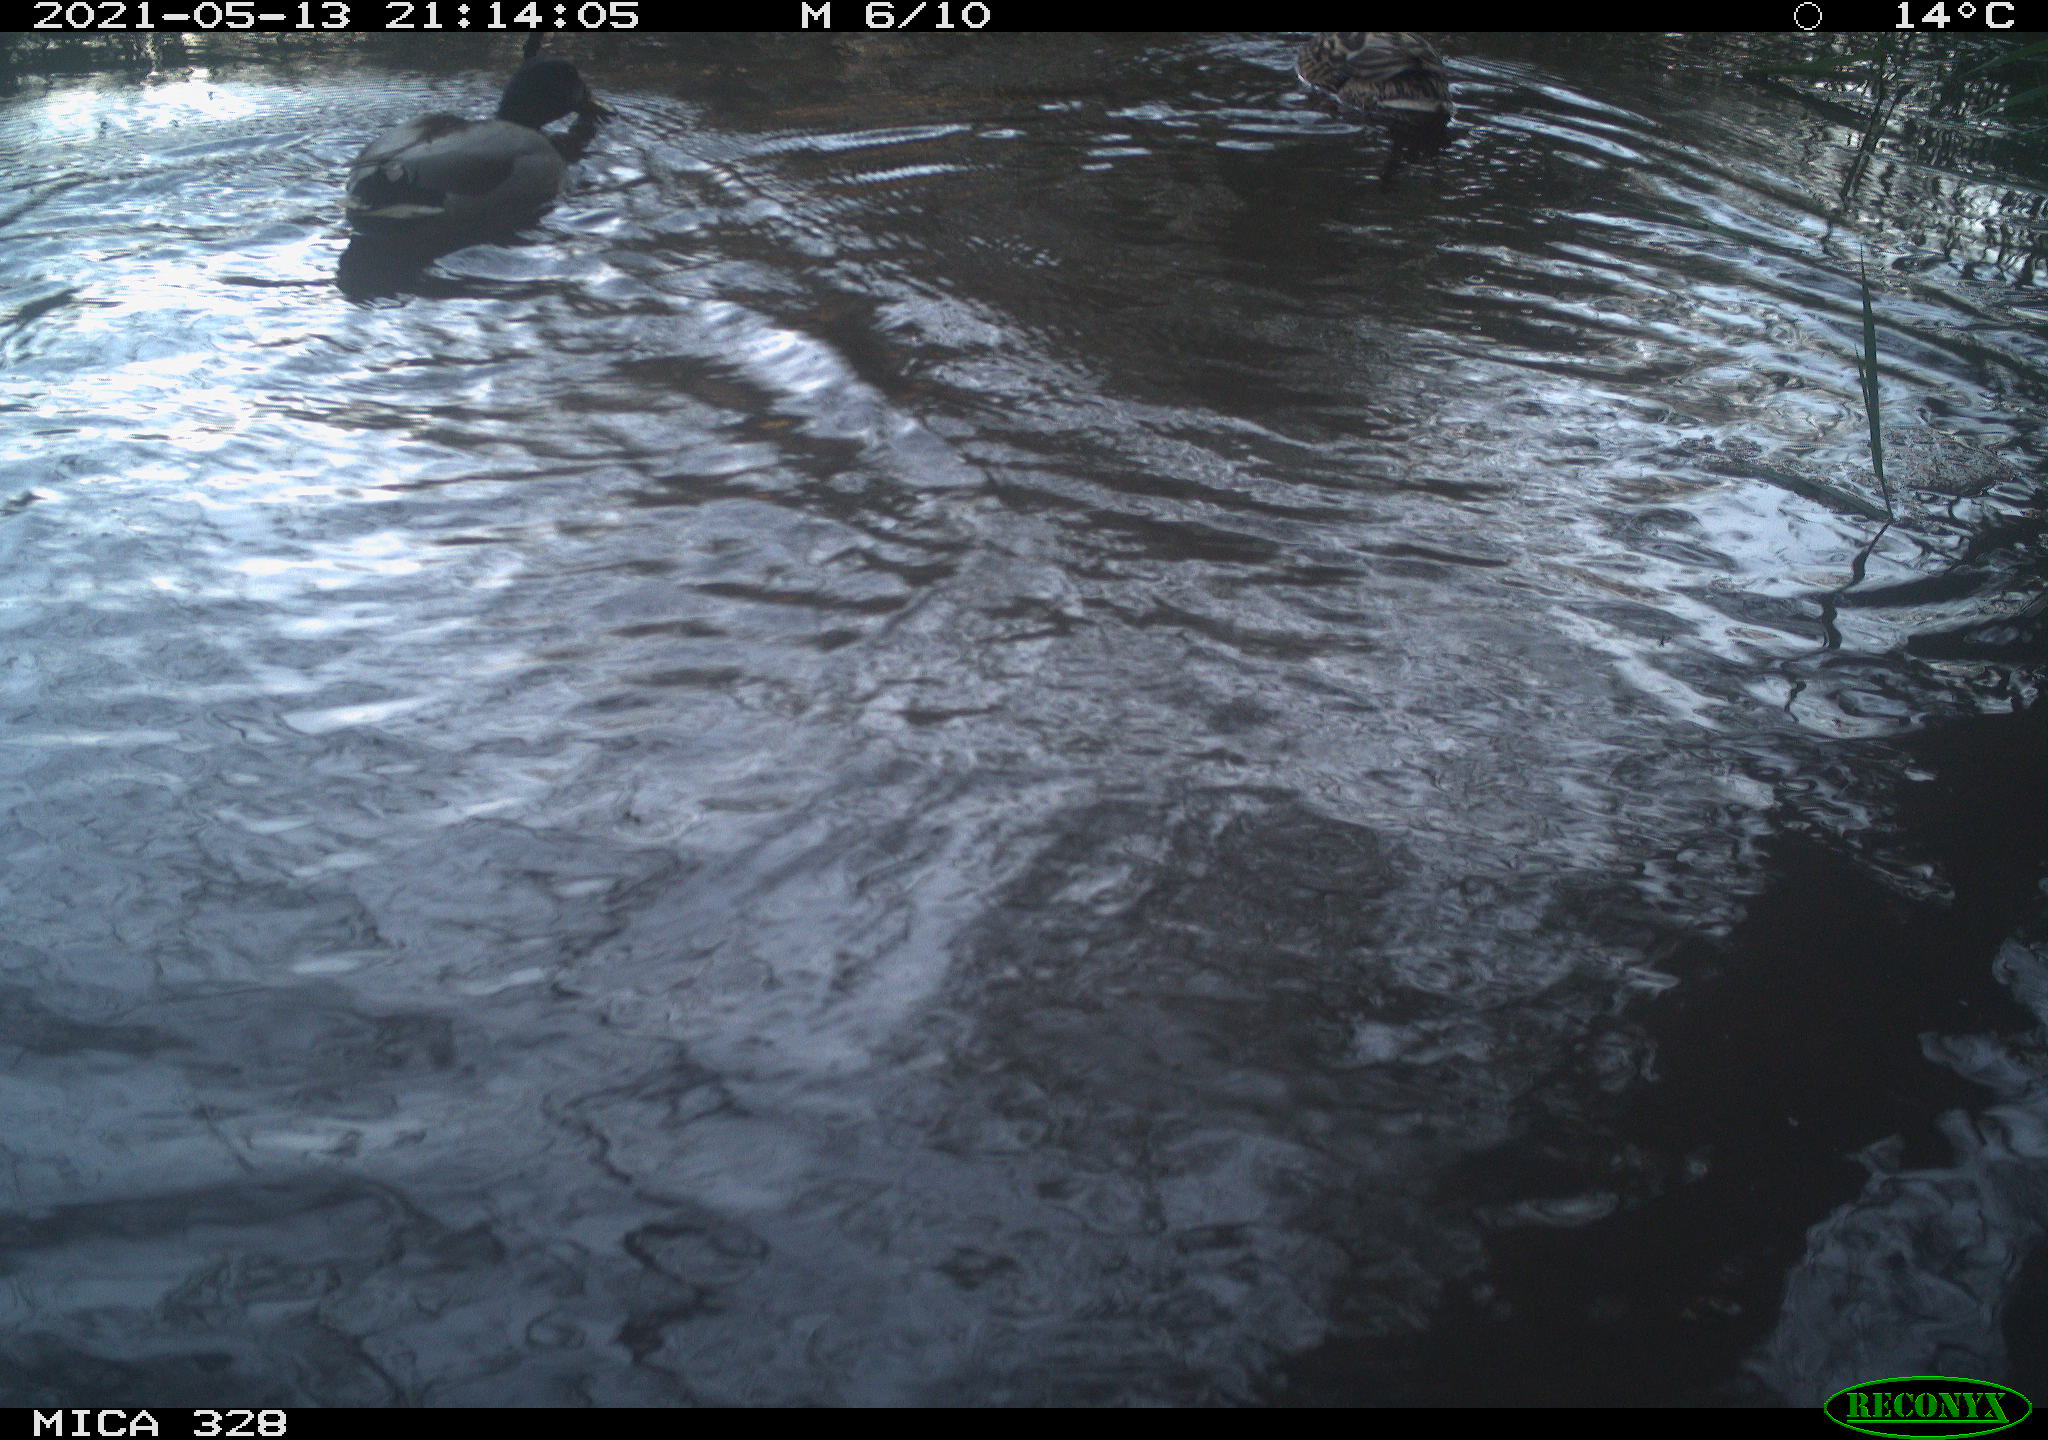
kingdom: Animalia
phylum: Chordata
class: Aves
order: Anseriformes
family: Anatidae
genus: Anas
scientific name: Anas platyrhynchos
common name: Mallard
